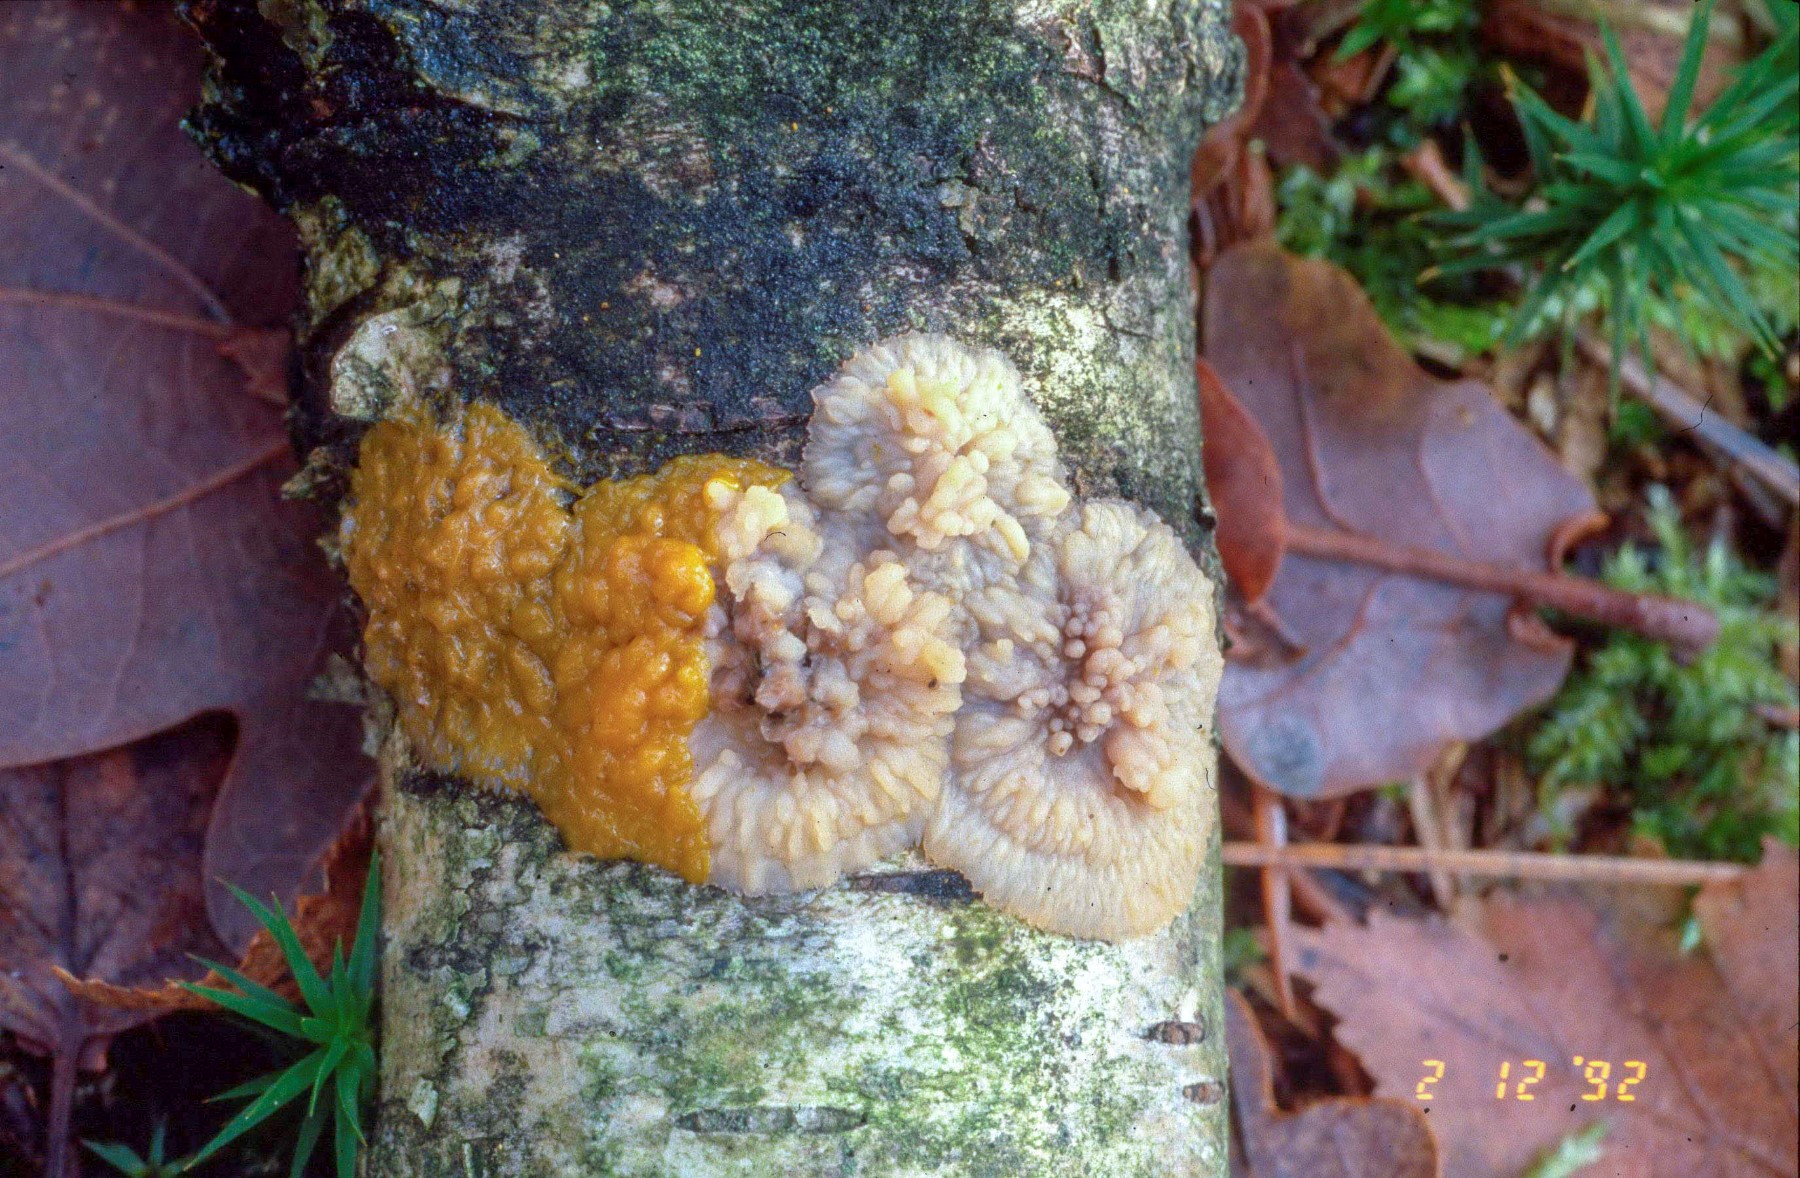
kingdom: Protozoa
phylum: Mycetozoa
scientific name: Mycetozoa
